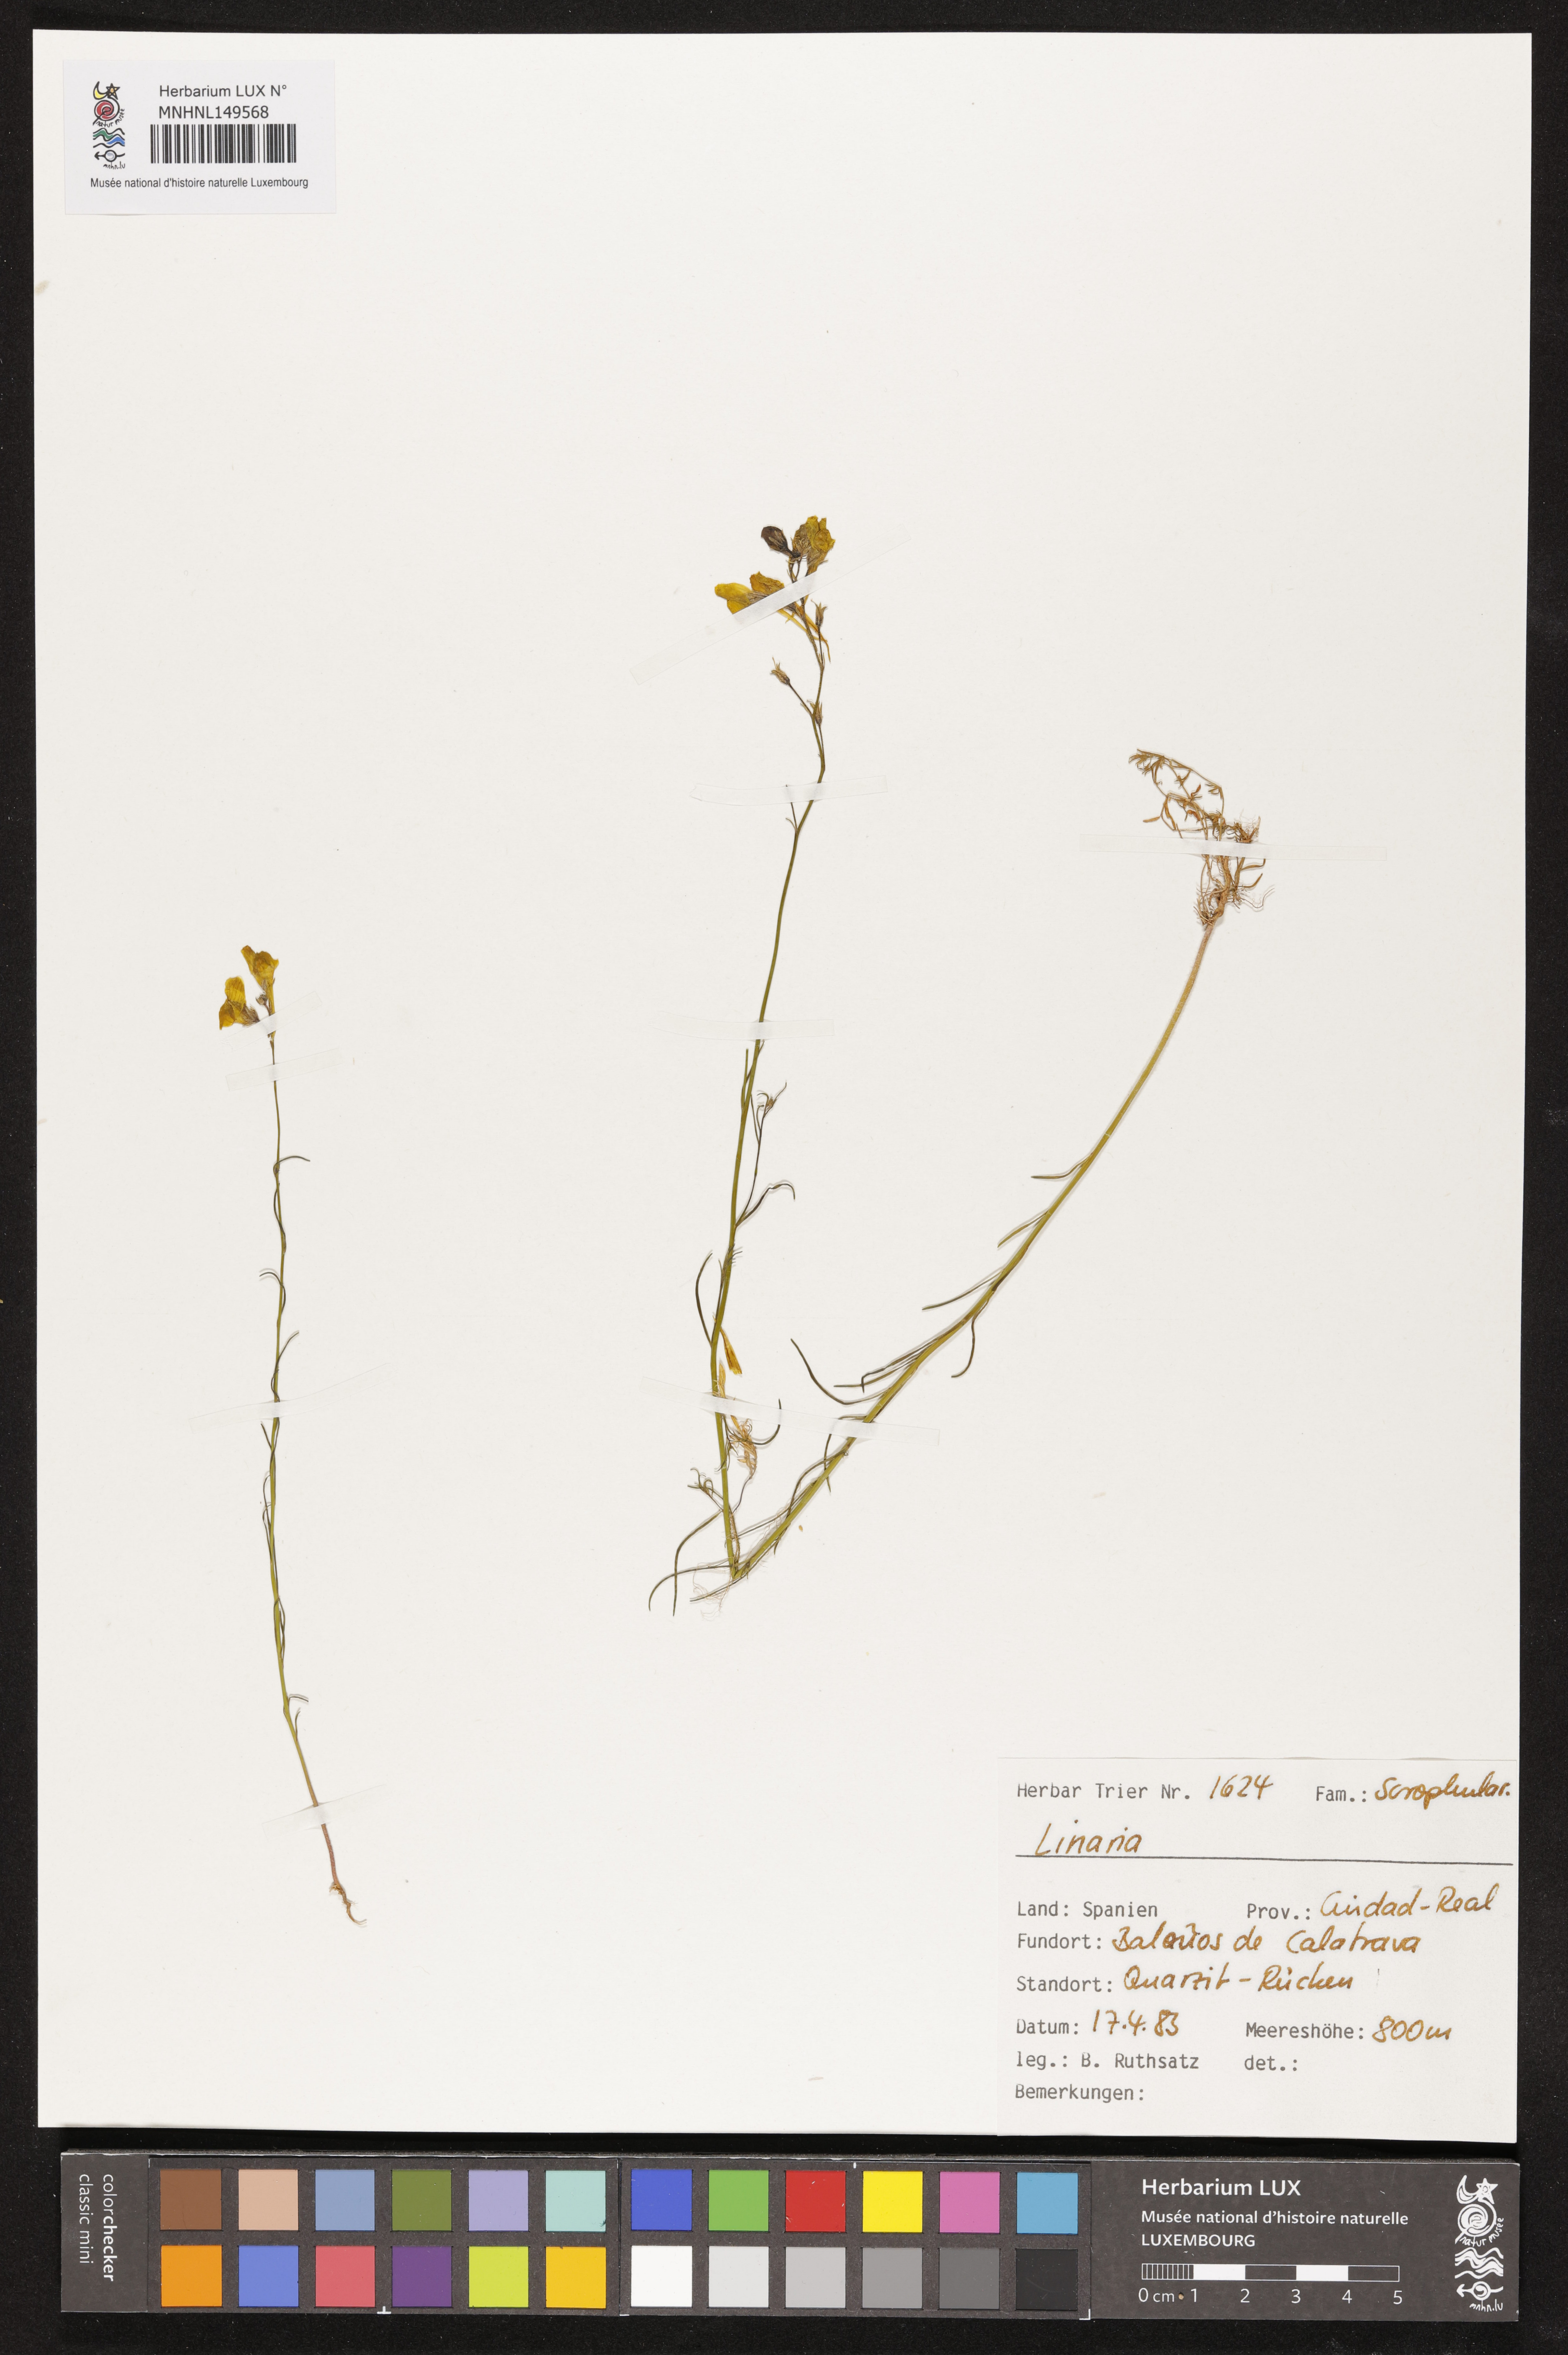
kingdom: Plantae
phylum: Tracheophyta
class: Magnoliopsida
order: Lamiales
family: Plantaginaceae
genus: Linaria
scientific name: Linaria
